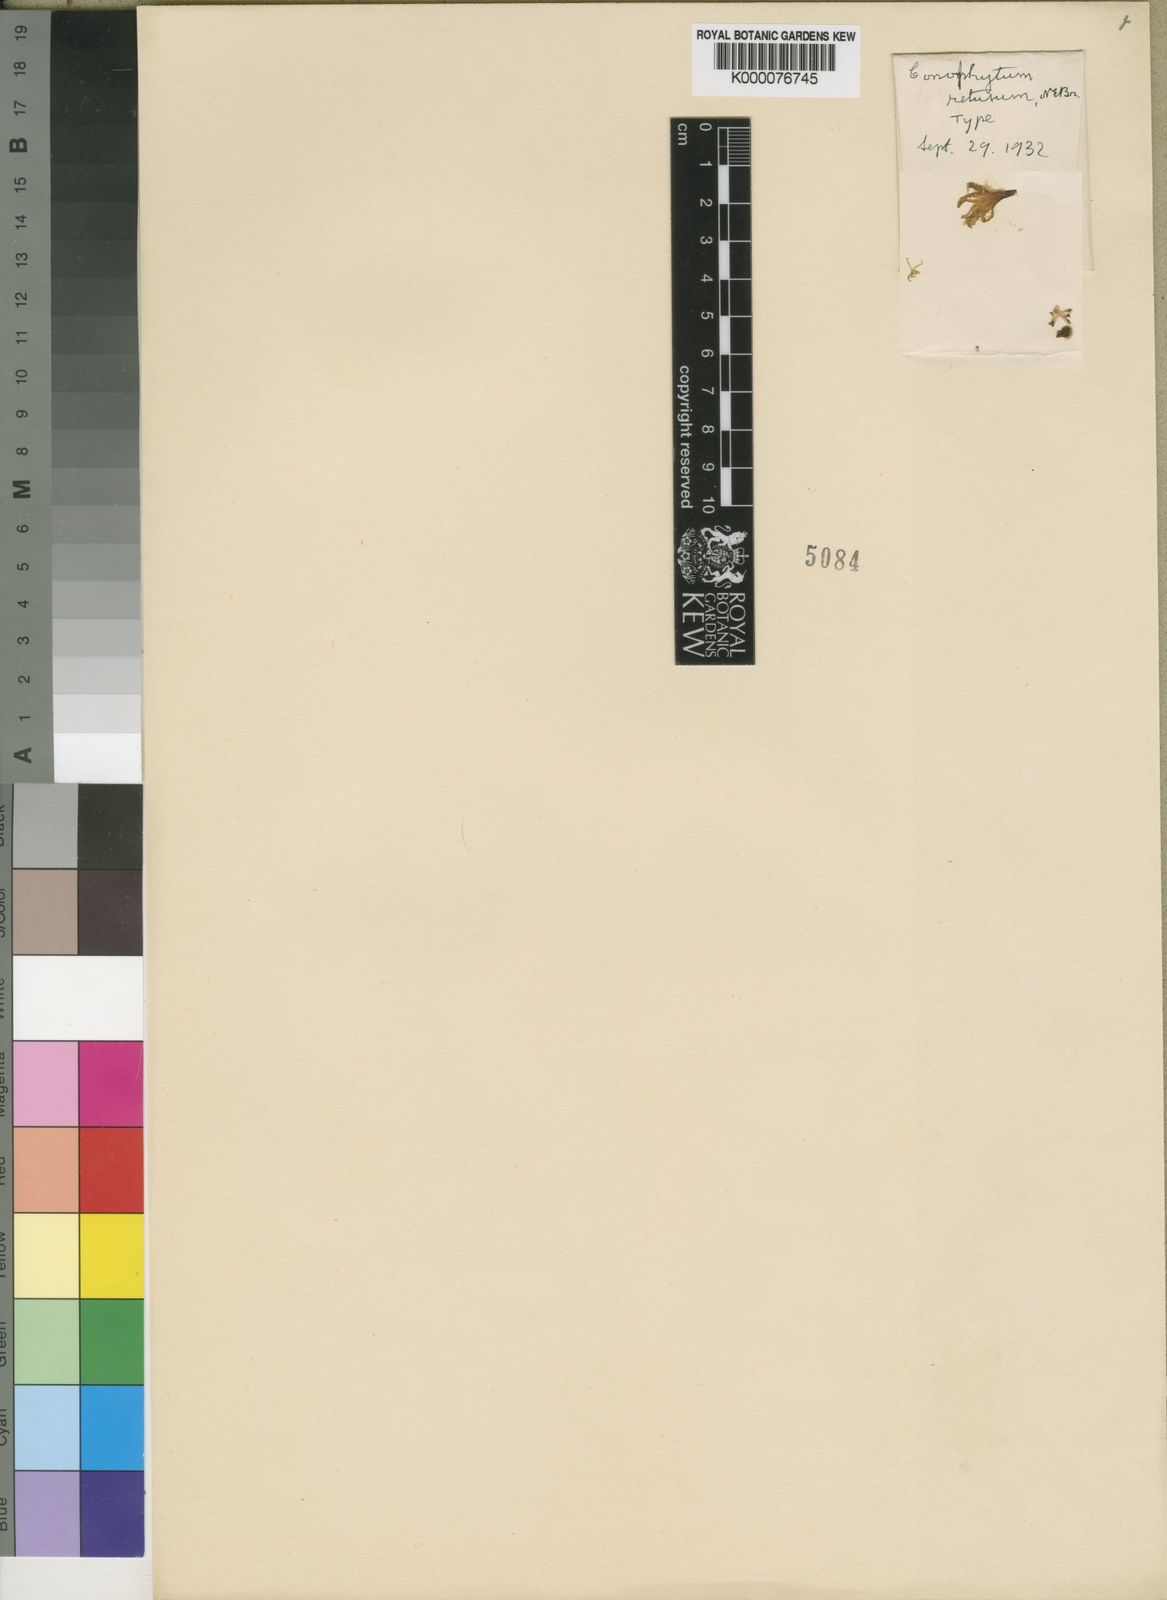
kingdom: Plantae
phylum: Tracheophyta
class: Magnoliopsida
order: Caryophyllales
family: Aizoaceae
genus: Conophytum
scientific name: Conophytum meyeri
